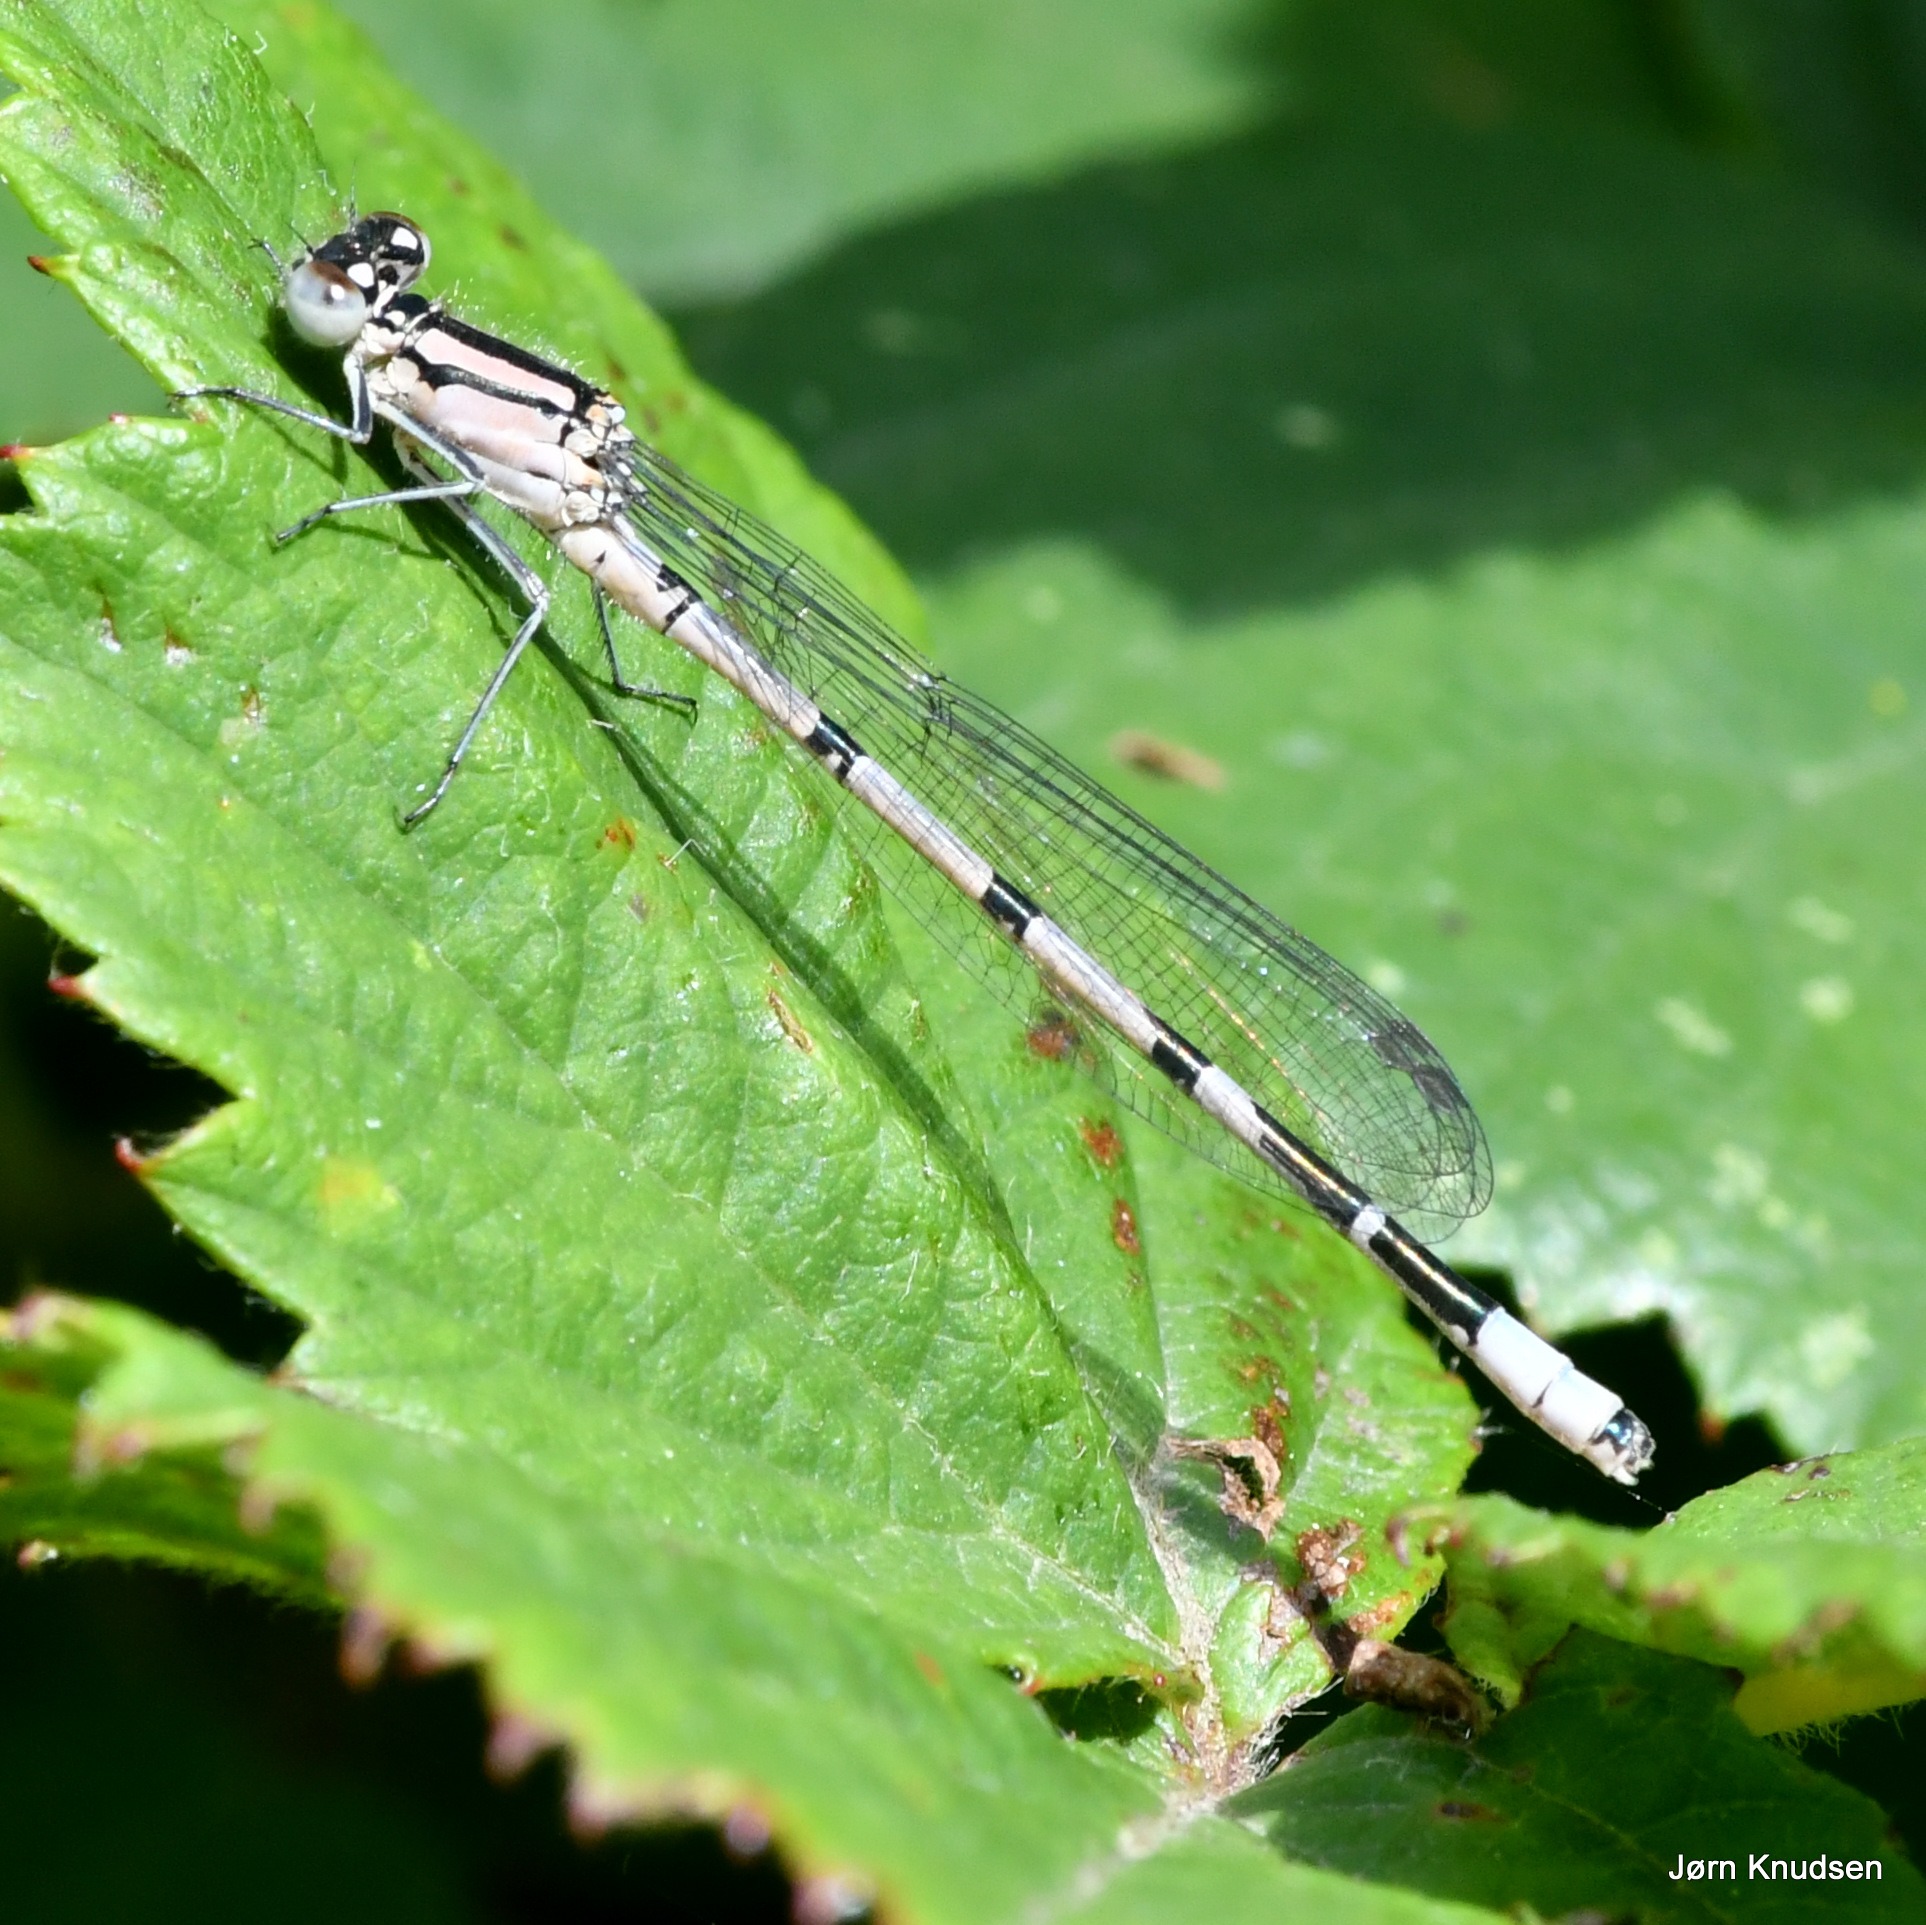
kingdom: Animalia
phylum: Arthropoda
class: Insecta
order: Odonata
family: Coenagrionidae
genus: Enallagma
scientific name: Enallagma cyathigerum
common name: Almindelig vandnymfe
